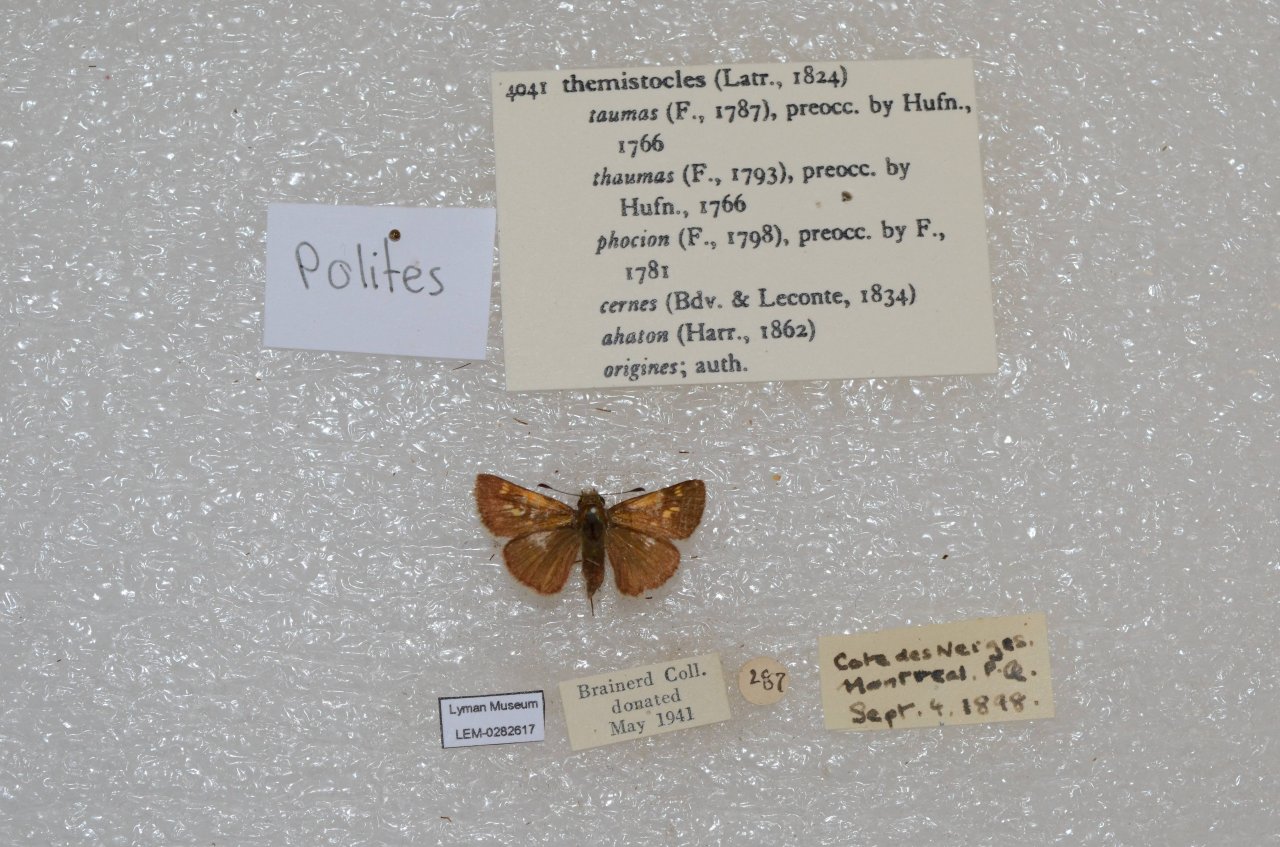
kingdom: Animalia
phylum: Arthropoda
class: Insecta
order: Lepidoptera
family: Hesperiidae
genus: Polites
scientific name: Polites themistocles
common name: Tawny-edged Skipper
